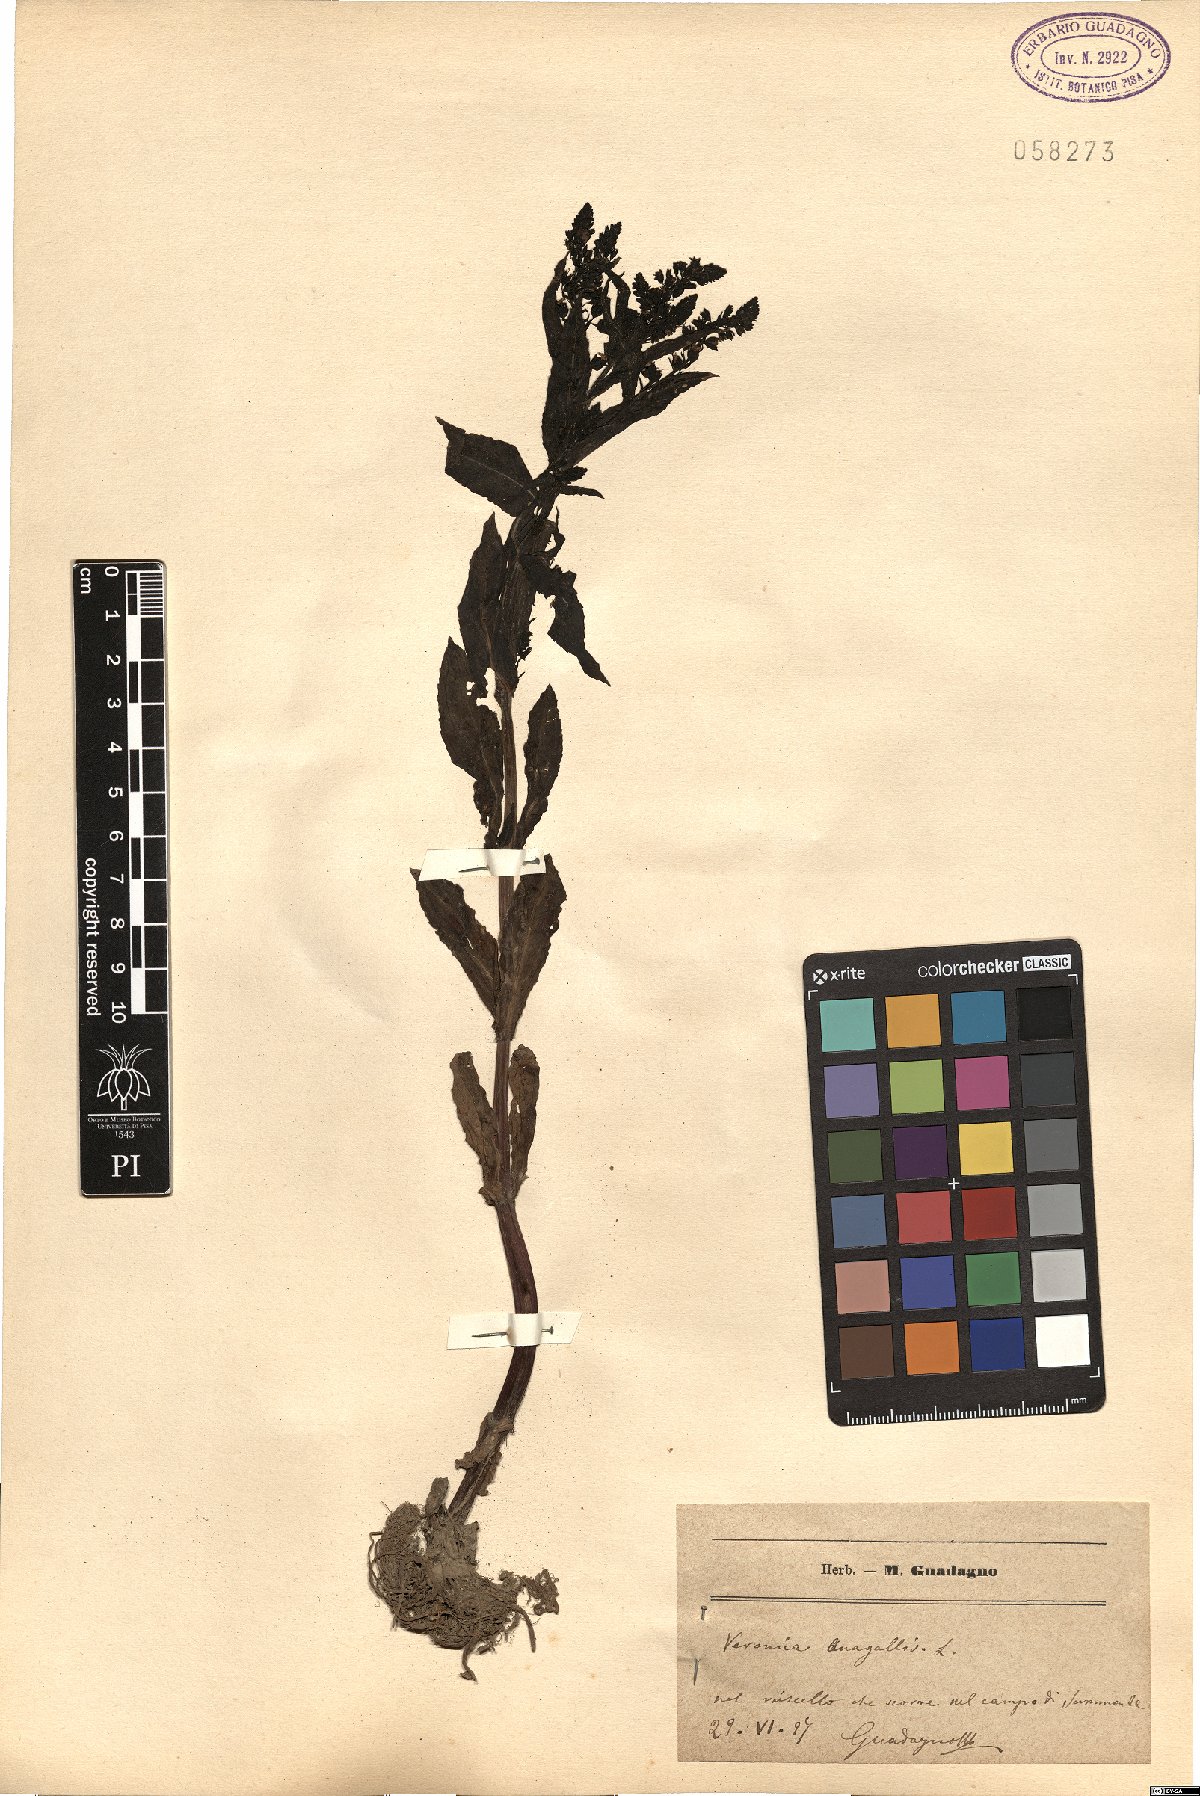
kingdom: Plantae
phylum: Tracheophyta
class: Magnoliopsida
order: Lamiales
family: Plantaginaceae
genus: Veronica
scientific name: Veronica anagallis-aquatica
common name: Water speedwell
